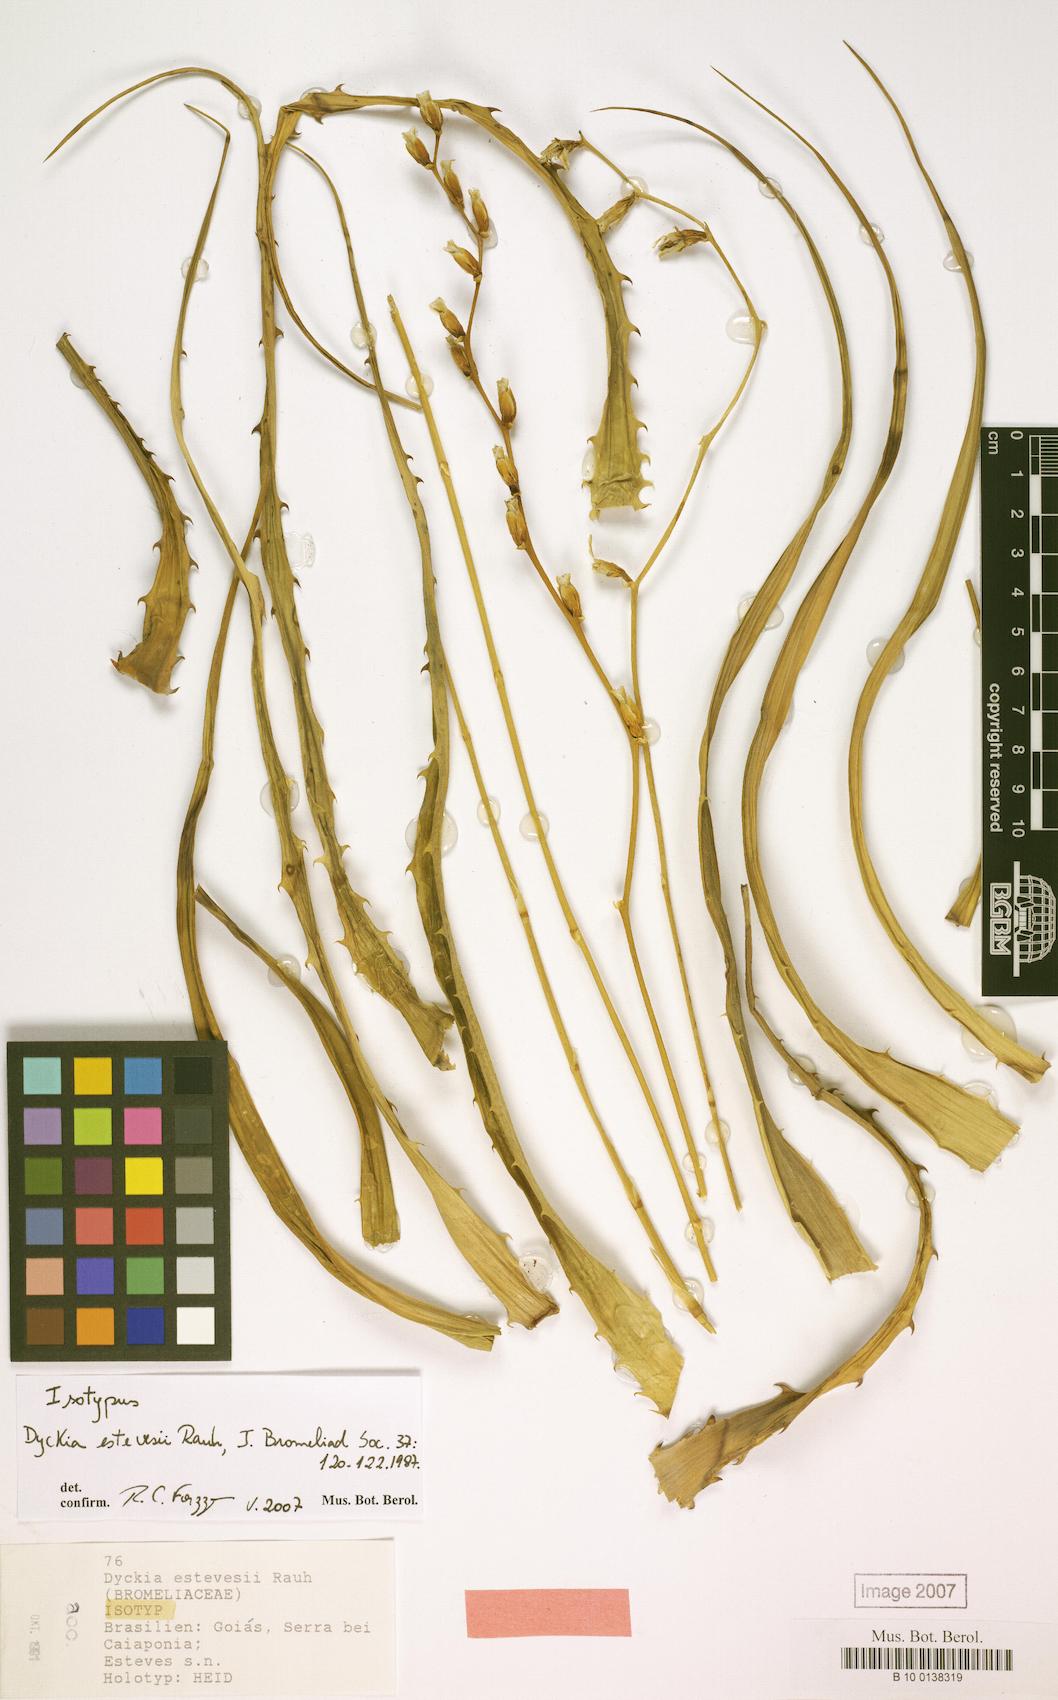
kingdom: Plantae
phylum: Tracheophyta
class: Liliopsida
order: Poales
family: Bromeliaceae
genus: Dyckia
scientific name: Dyckia estevesii
